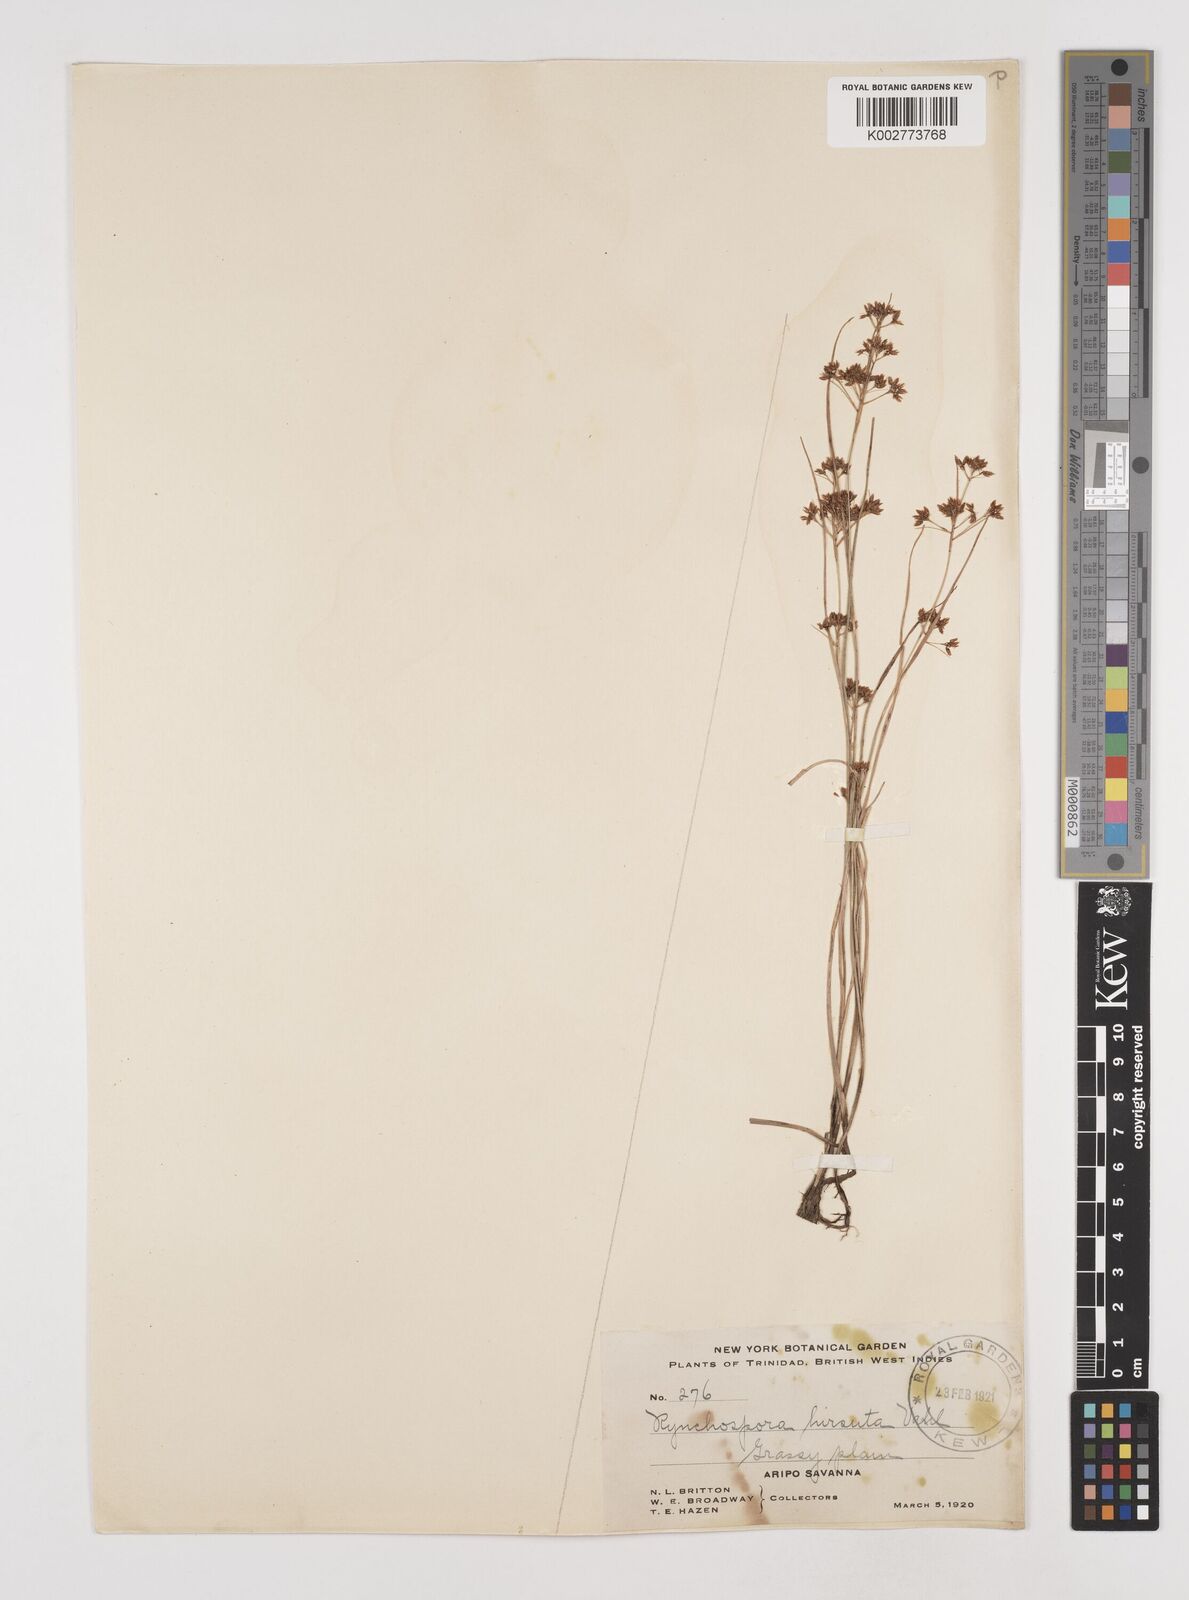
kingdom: Plantae
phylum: Tracheophyta
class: Liliopsida
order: Poales
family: Cyperaceae
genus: Rhynchospora
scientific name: Rhynchospora hirsuta
